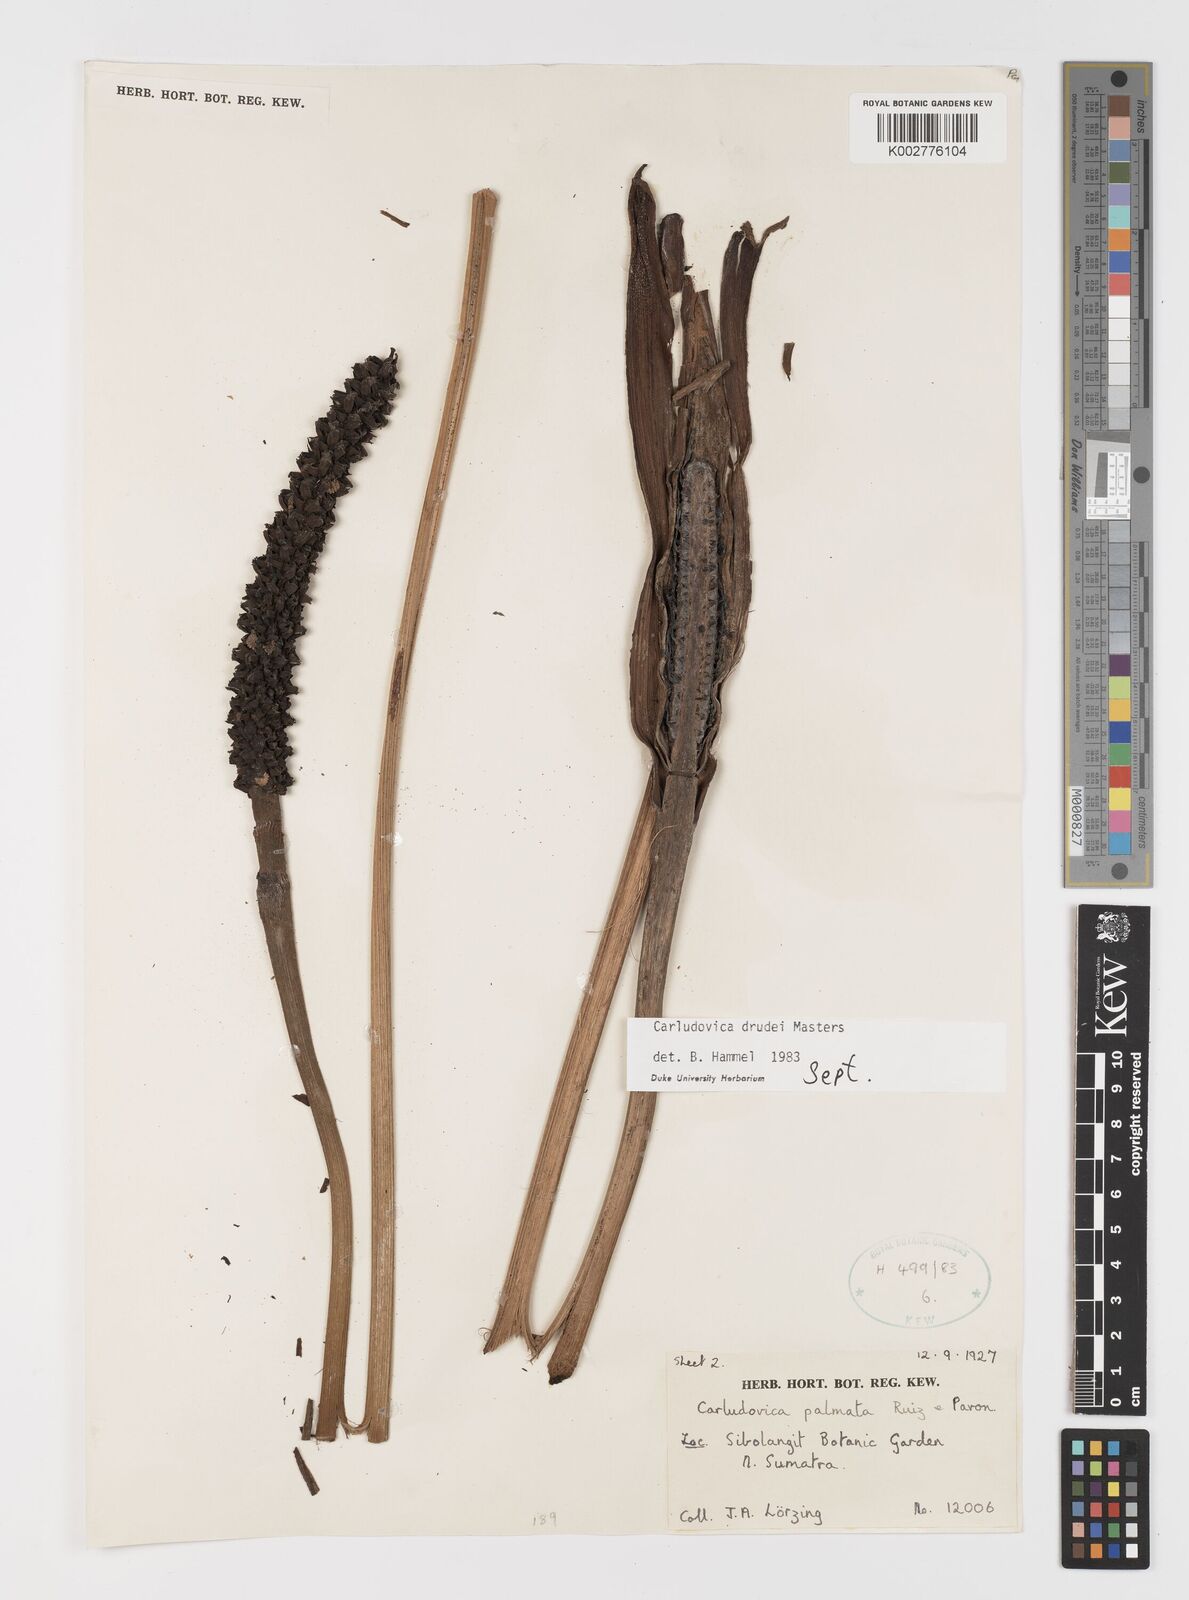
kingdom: Plantae
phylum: Tracheophyta
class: Liliopsida
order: Pandanales
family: Cyclanthaceae
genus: Carludovica
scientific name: Carludovica drudei
